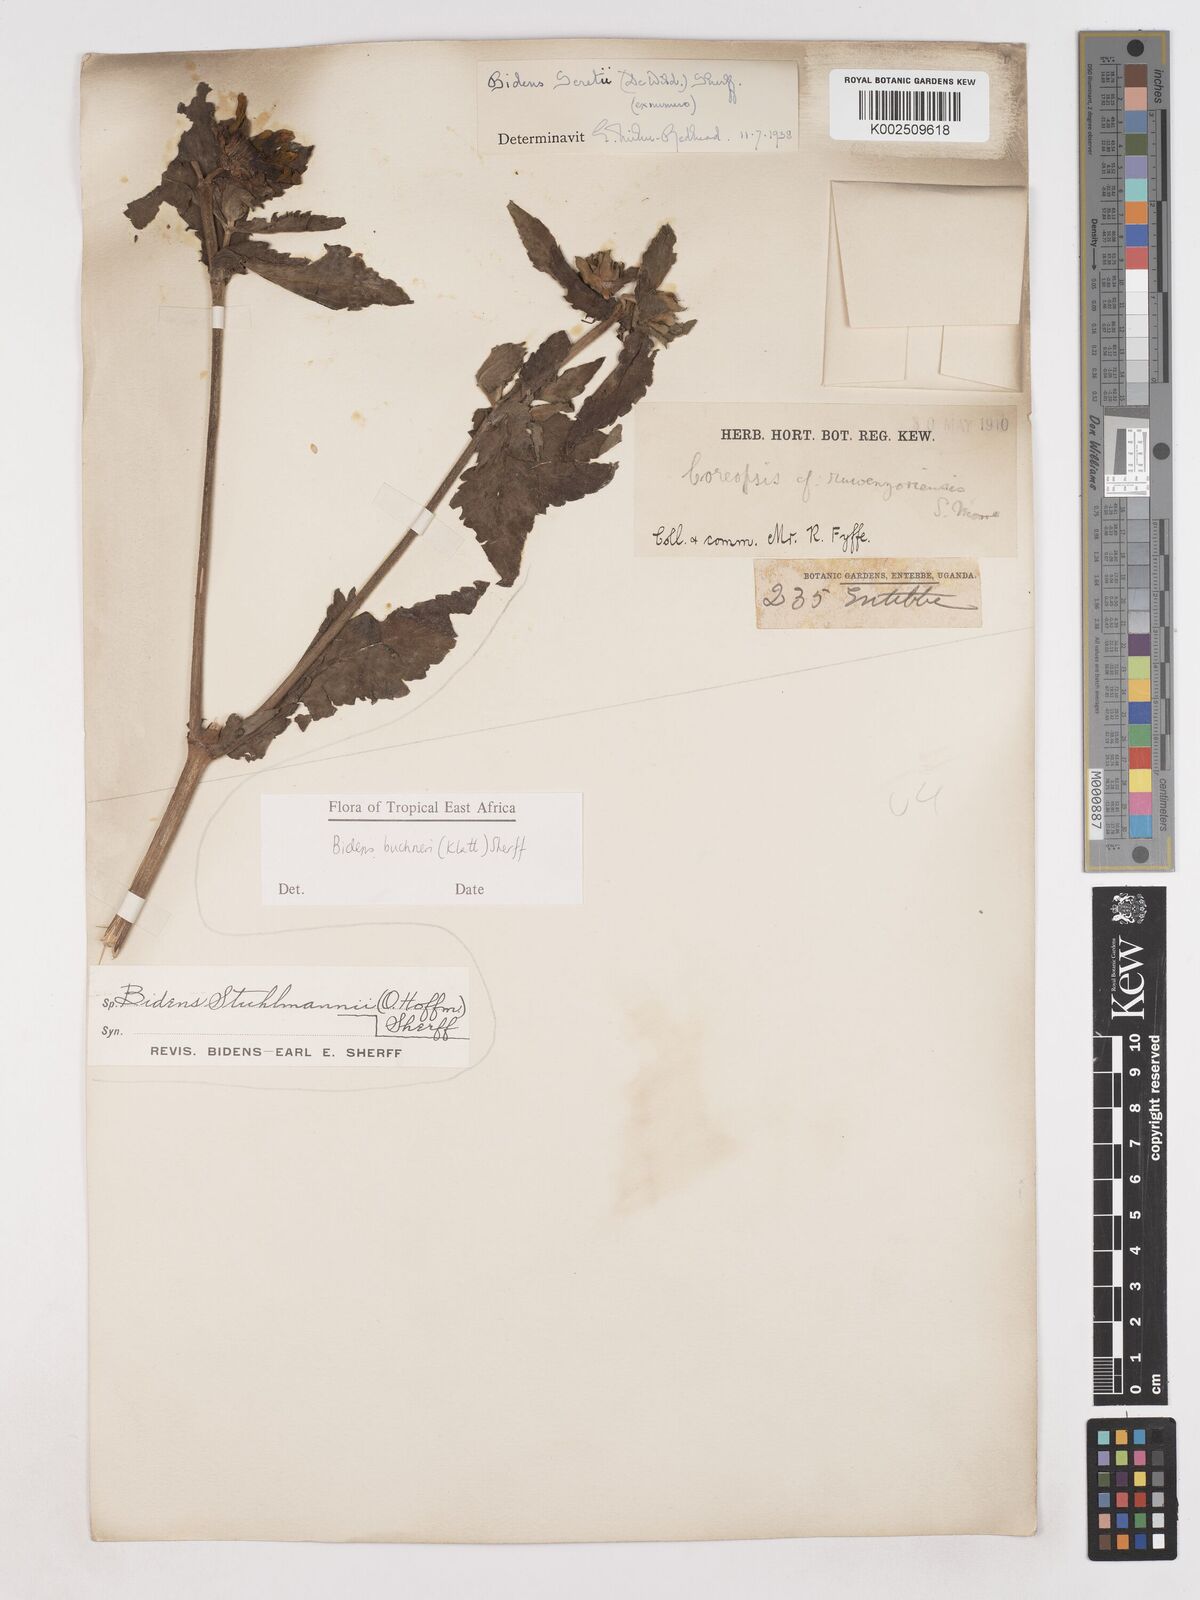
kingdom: Plantae
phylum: Tracheophyta
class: Magnoliopsida
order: Asterales
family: Asteraceae
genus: Bidens
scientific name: Bidens buchneri
